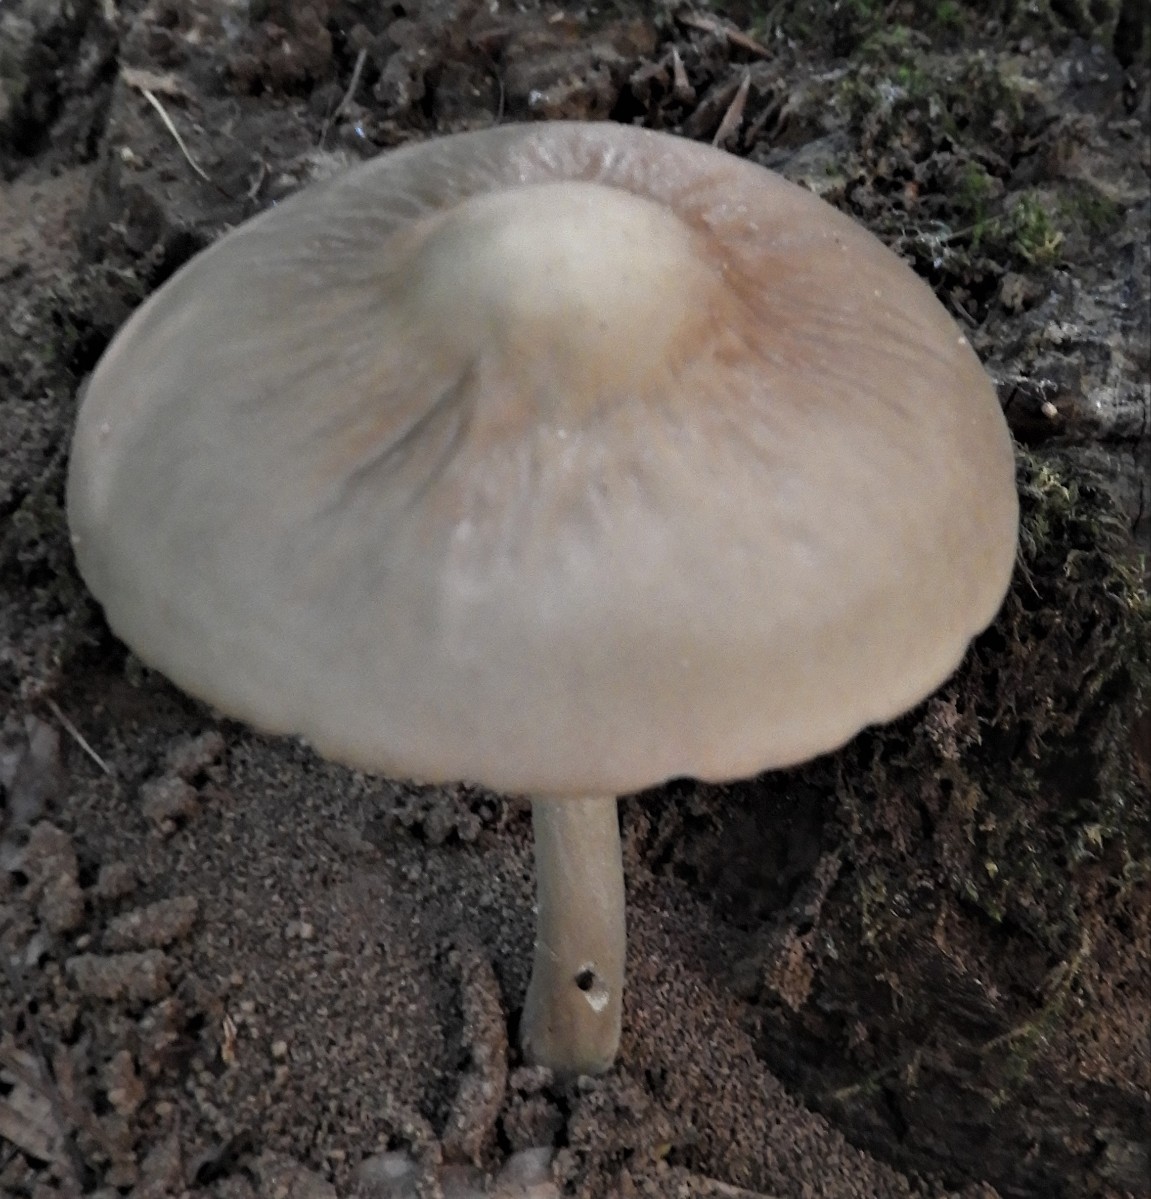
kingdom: Fungi
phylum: Basidiomycota
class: Agaricomycetes
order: Agaricales
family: Physalacriaceae
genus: Hymenopellis
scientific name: Hymenopellis radicata
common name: almindelig pælerodshat
